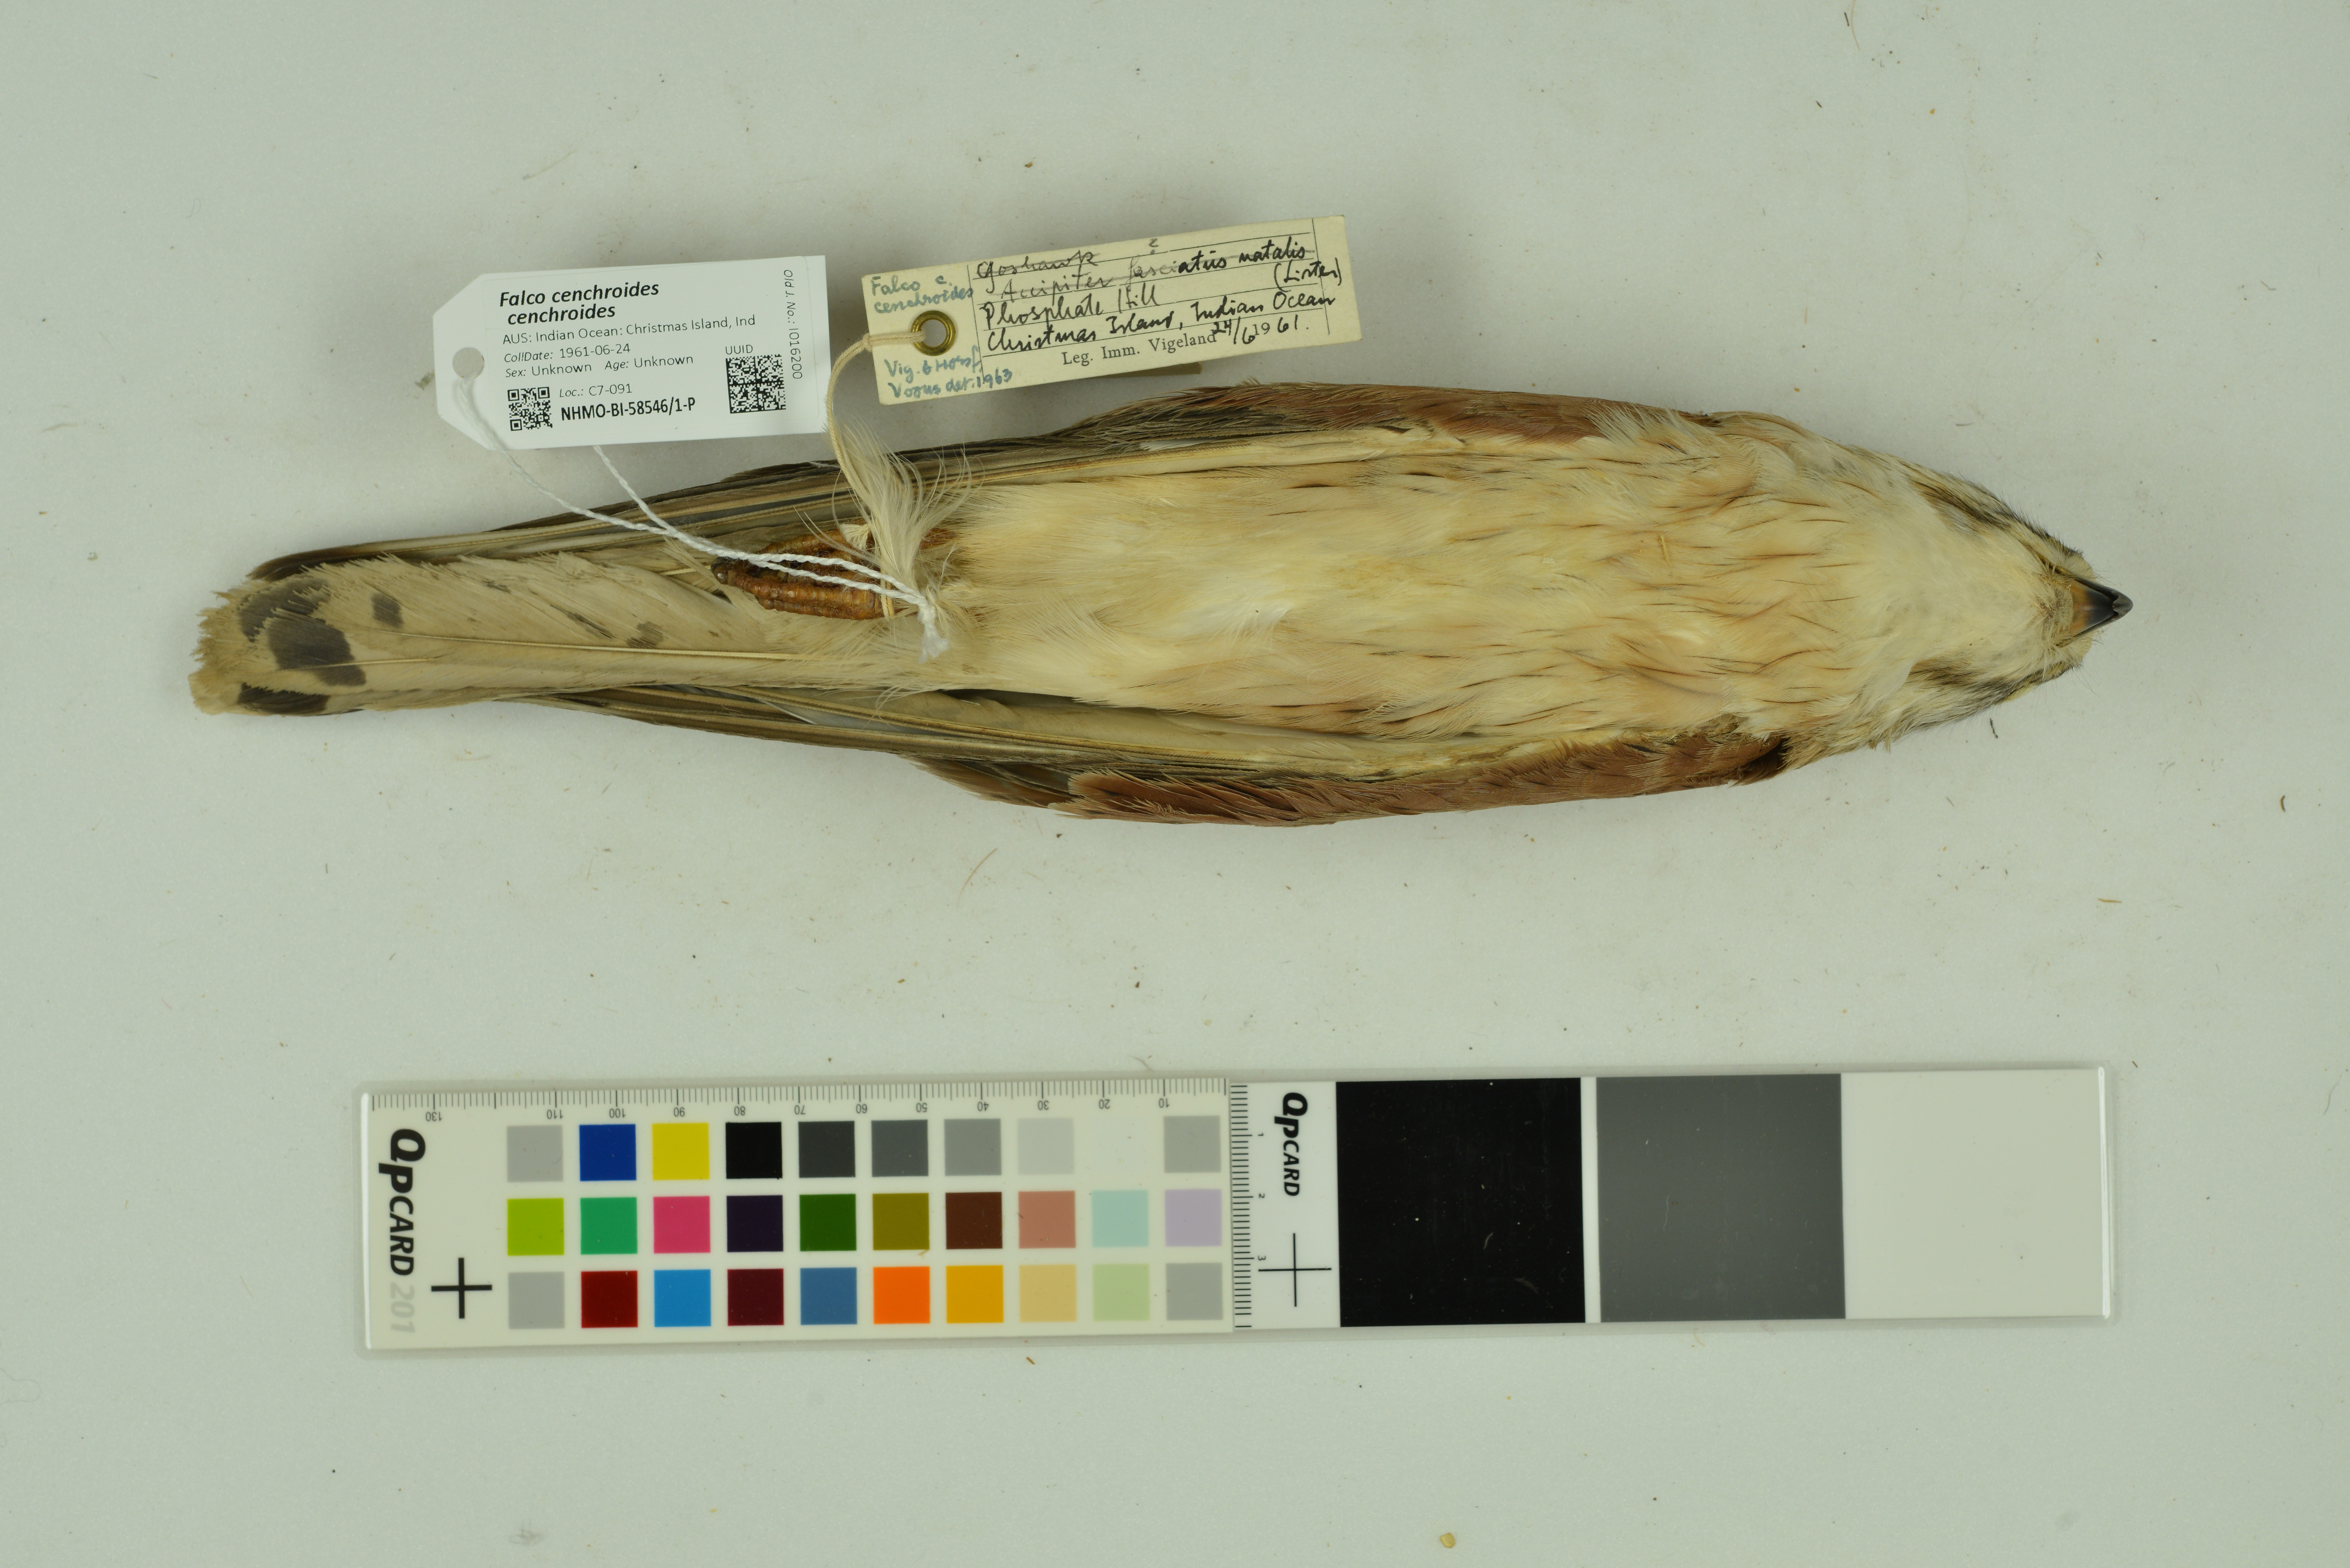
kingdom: Animalia
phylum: Chordata
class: Aves
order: Falconiformes
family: Falconidae
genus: Falco
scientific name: Falco cenchroides
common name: Nankeen kestrel
